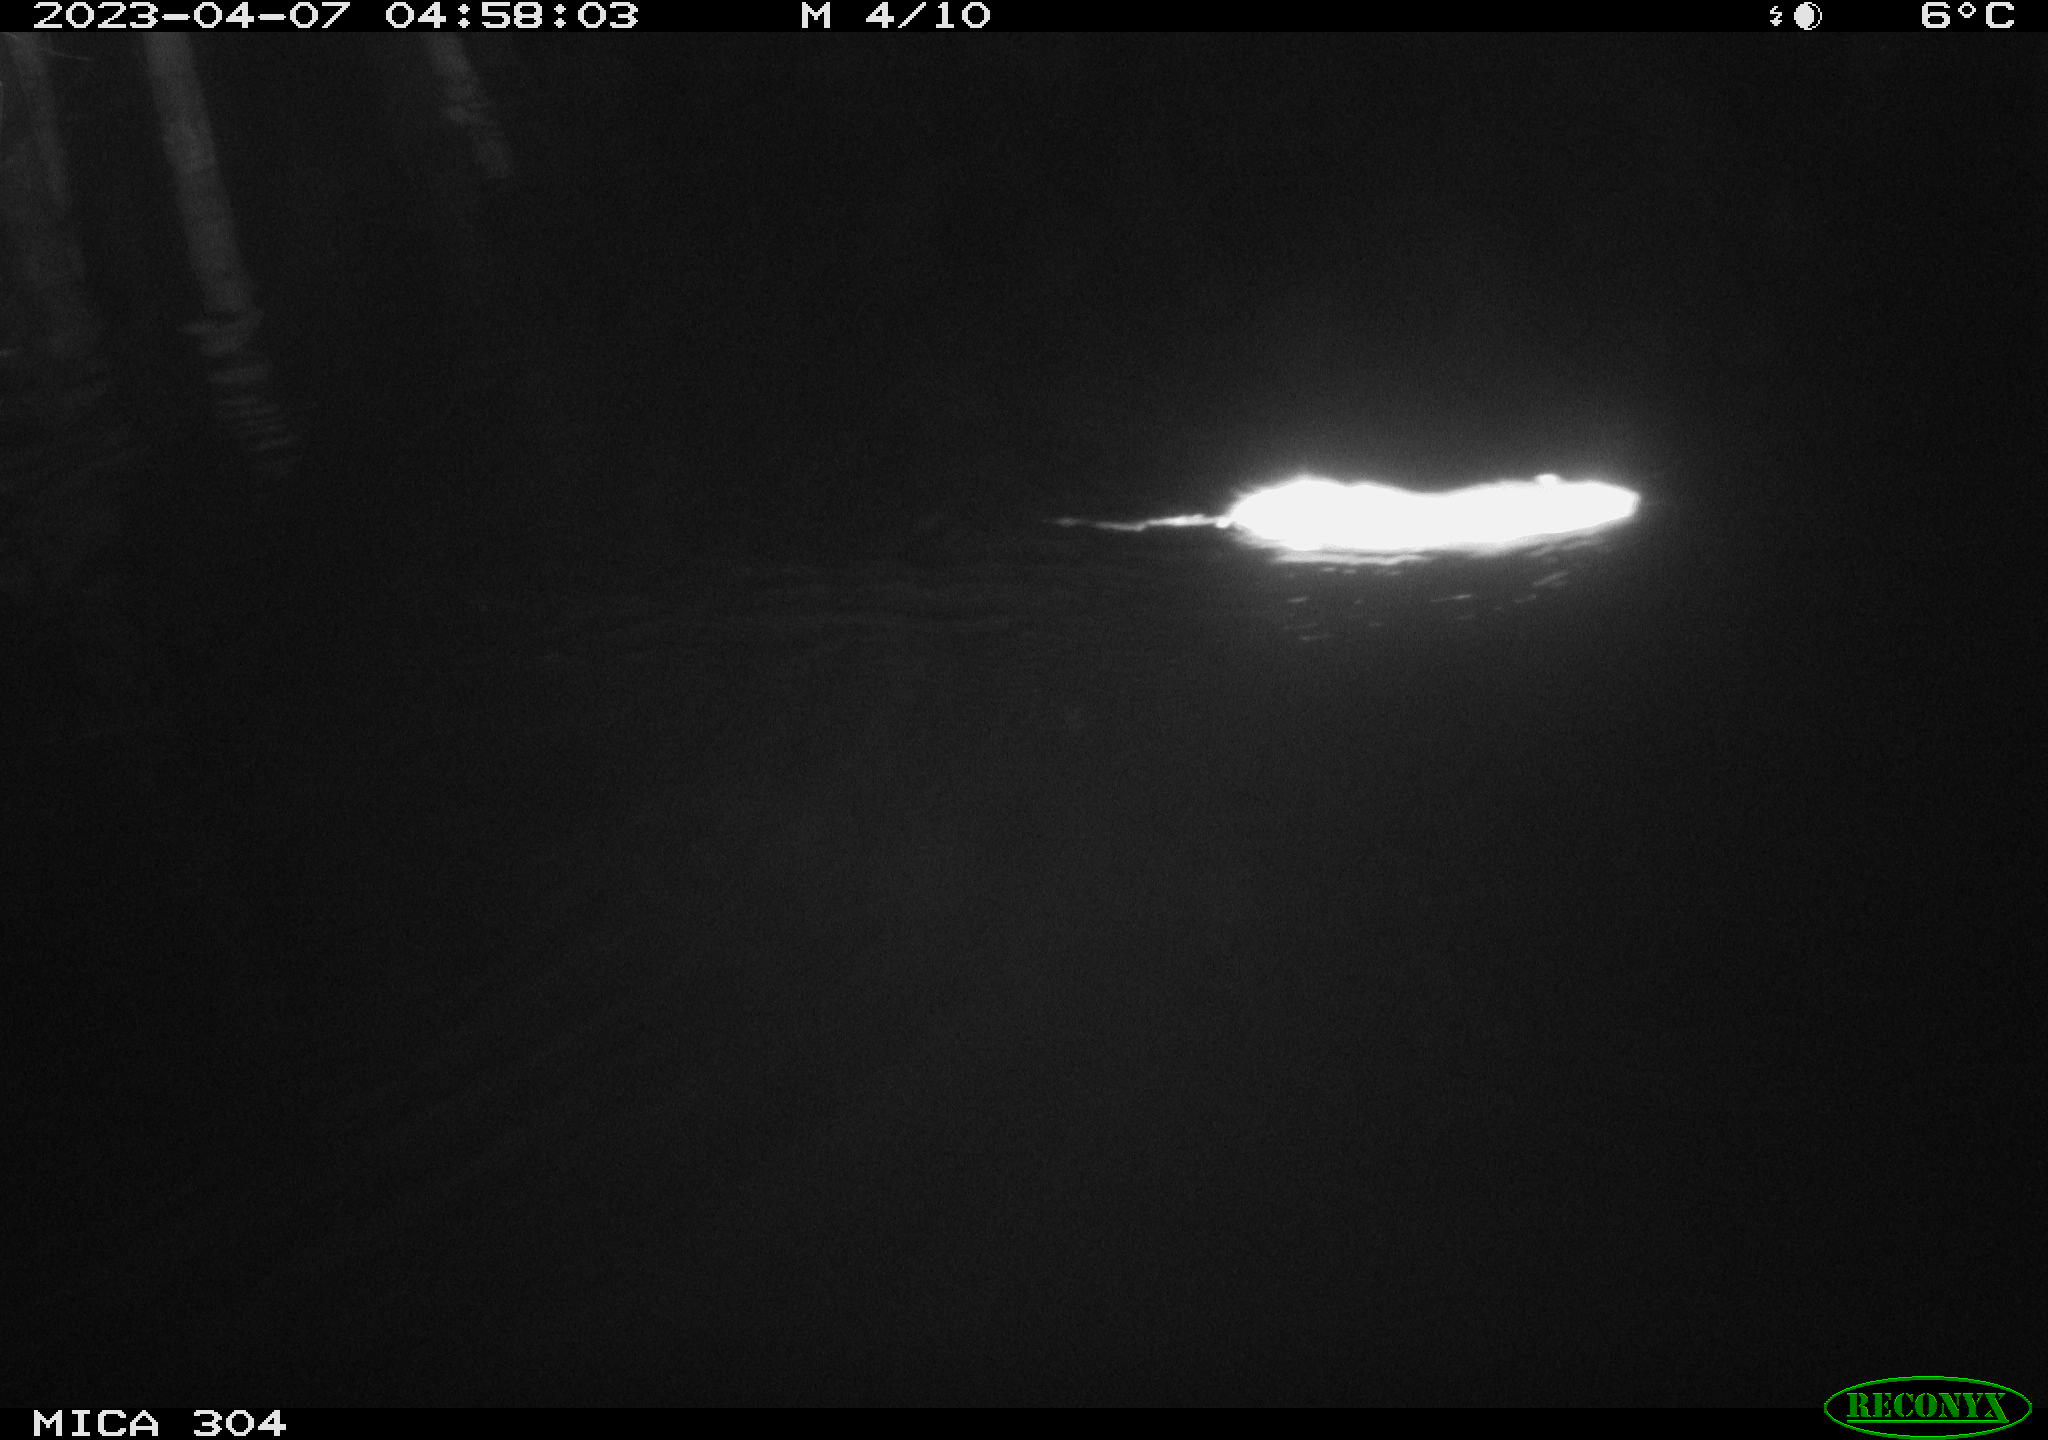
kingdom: Animalia
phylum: Chordata
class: Mammalia
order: Rodentia
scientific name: Rodentia
